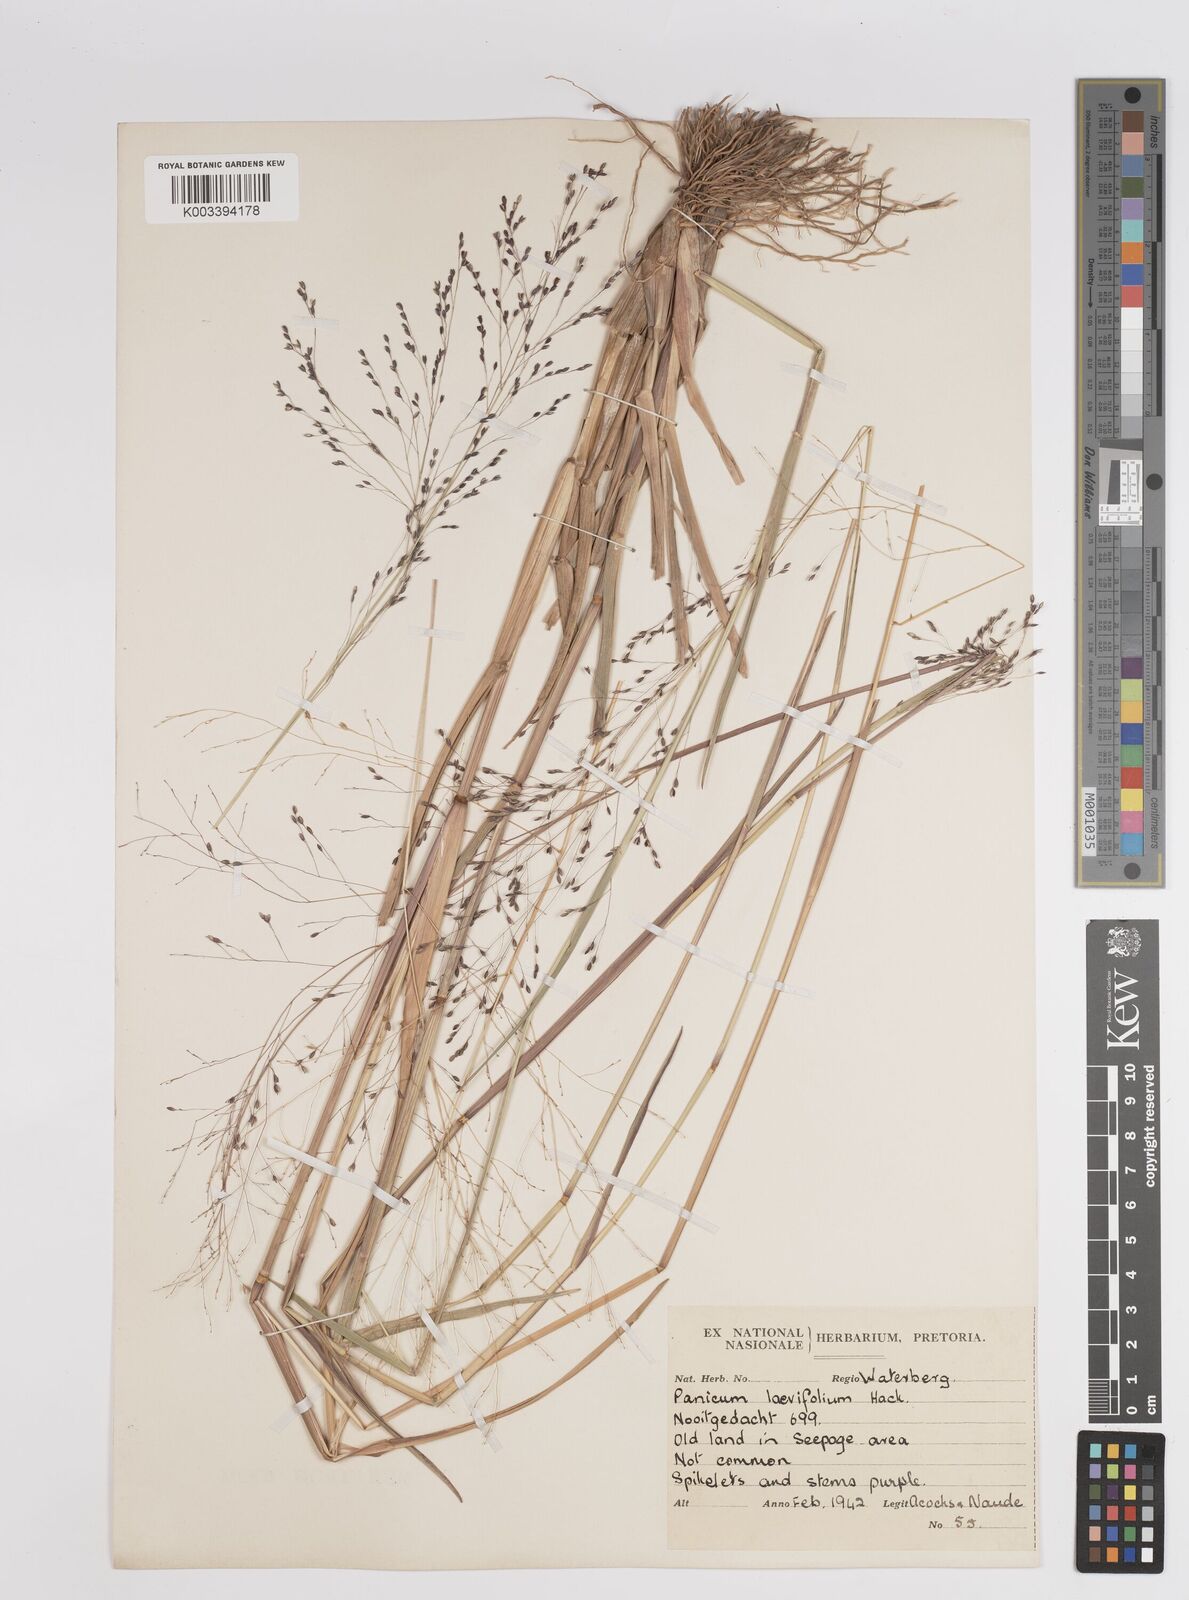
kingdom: Plantae
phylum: Tracheophyta
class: Liliopsida
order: Poales
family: Poaceae
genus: Panicum
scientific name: Panicum schinzii
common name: Sweet grass
